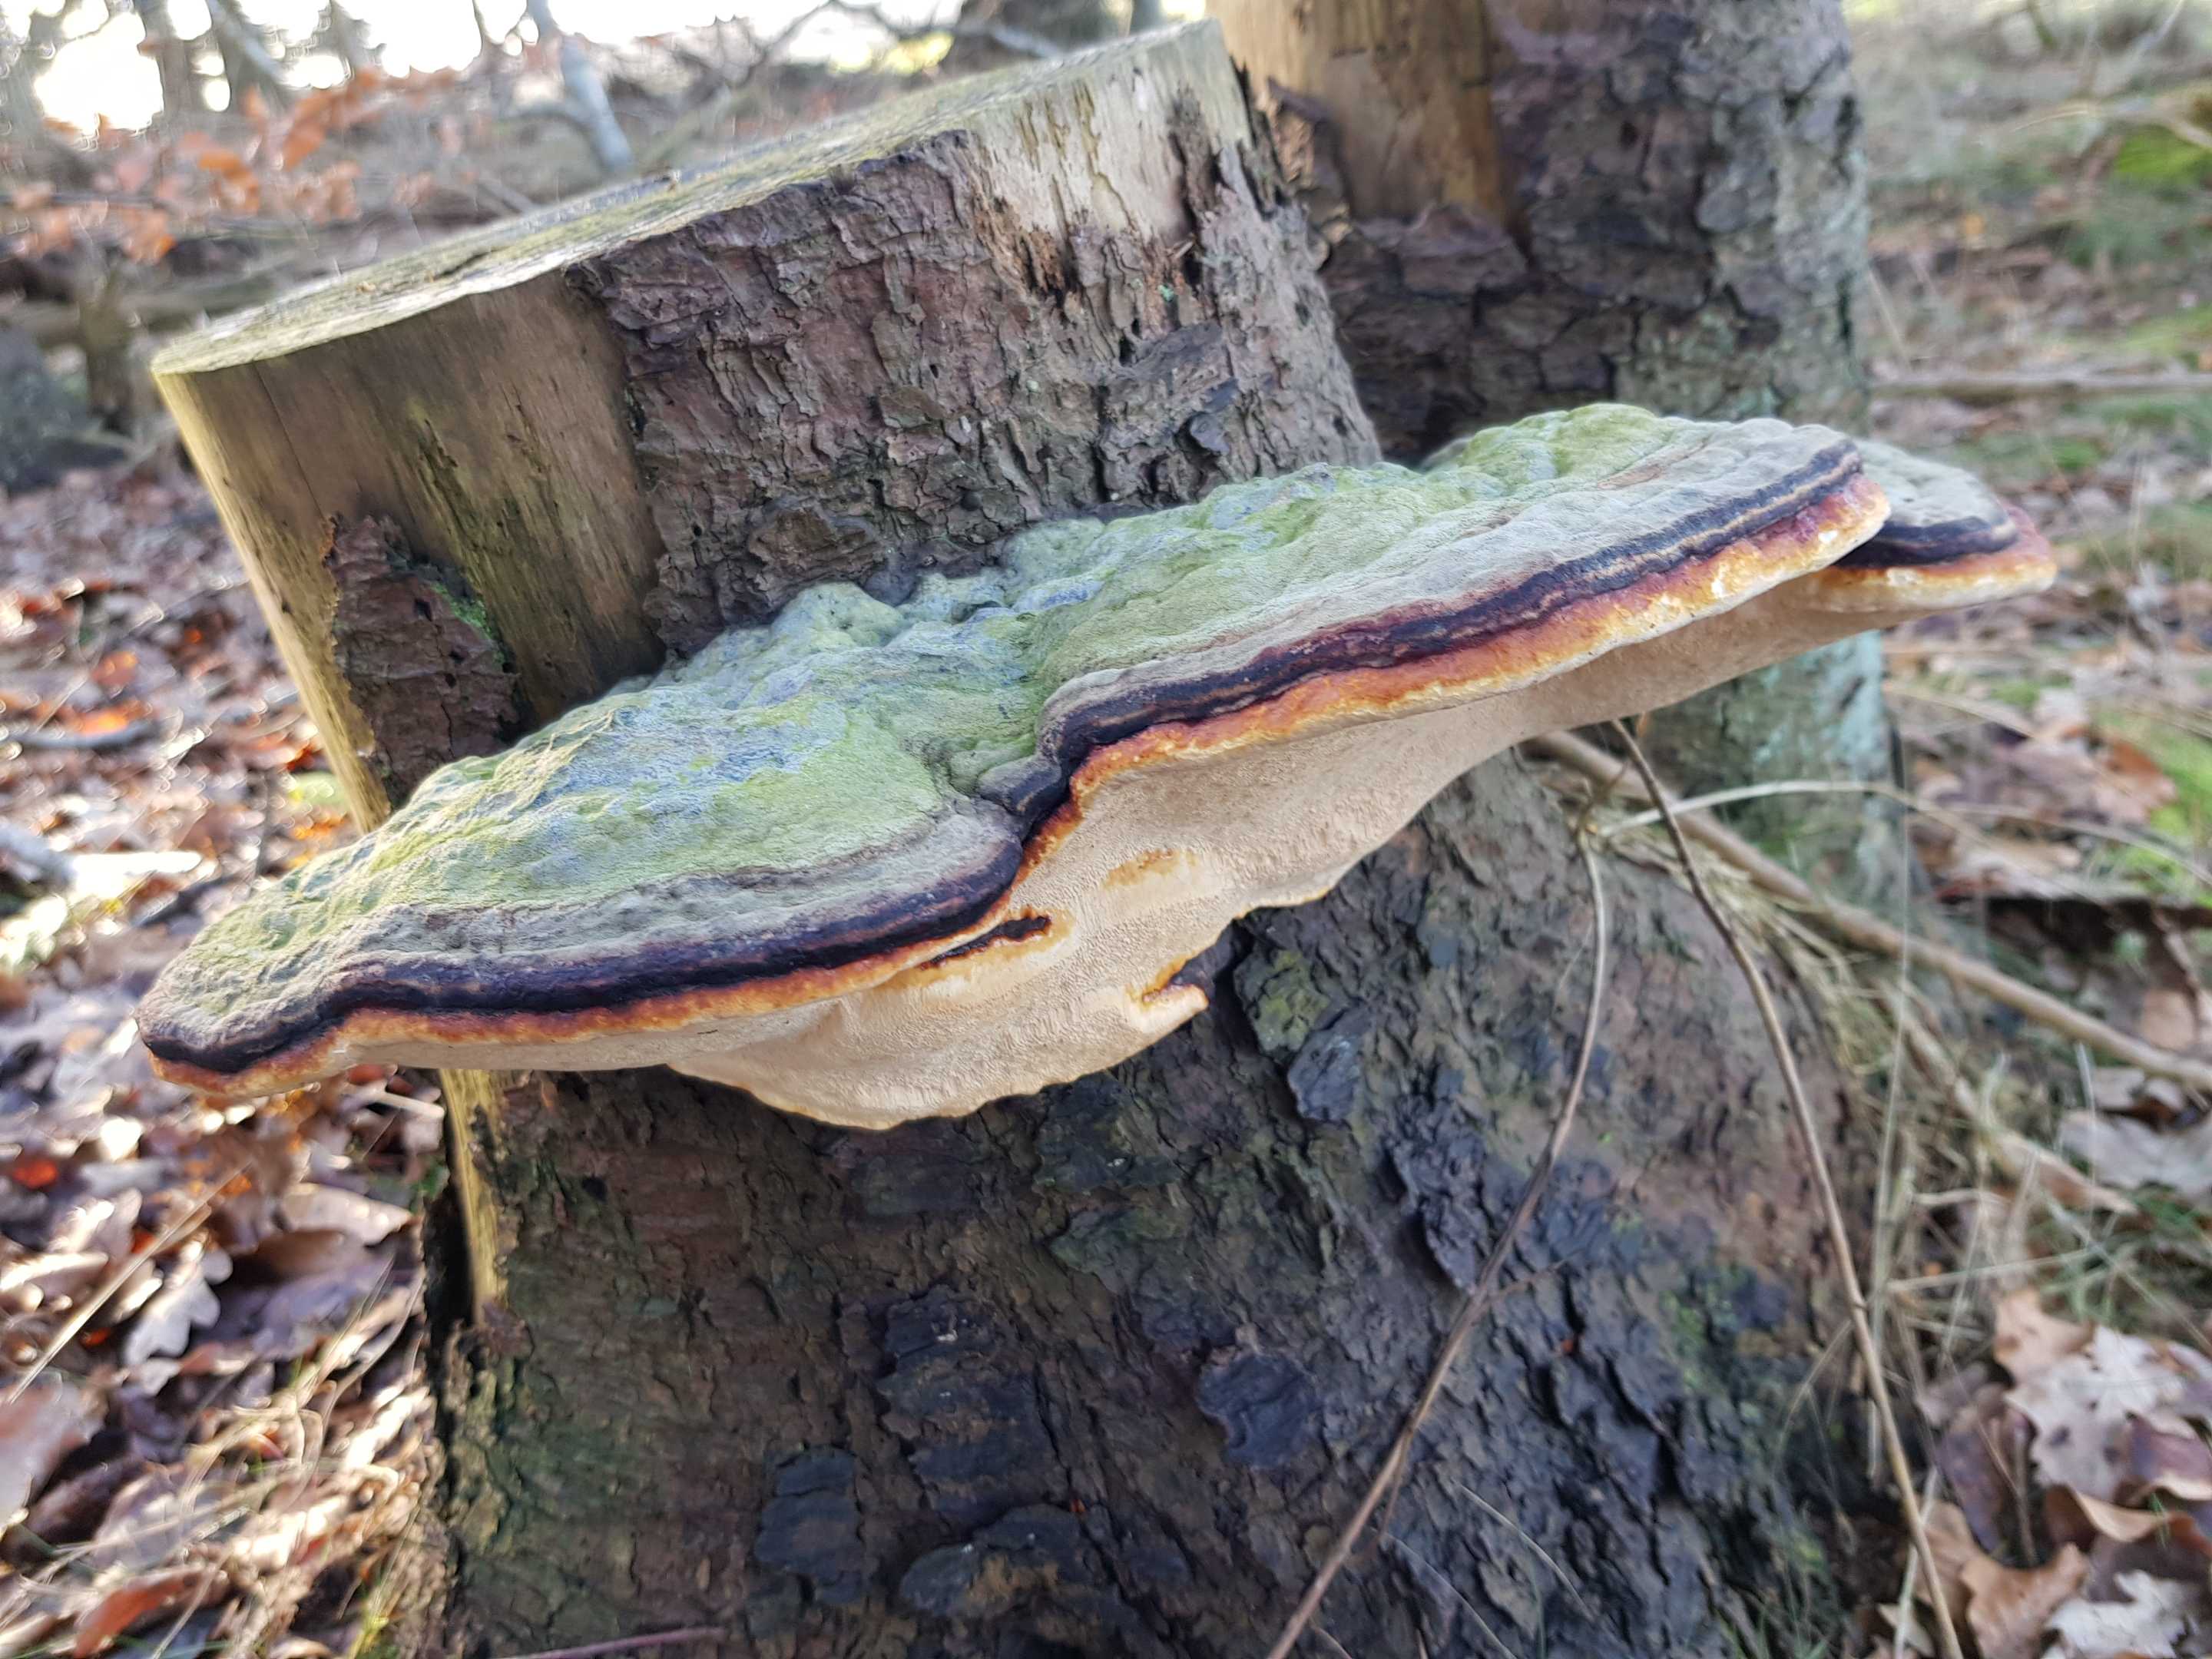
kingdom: Fungi
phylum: Basidiomycota
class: Agaricomycetes
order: Polyporales
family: Fomitopsidaceae
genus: Fomitopsis
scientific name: Fomitopsis pinicola
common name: randbæltet hovporesvamp
